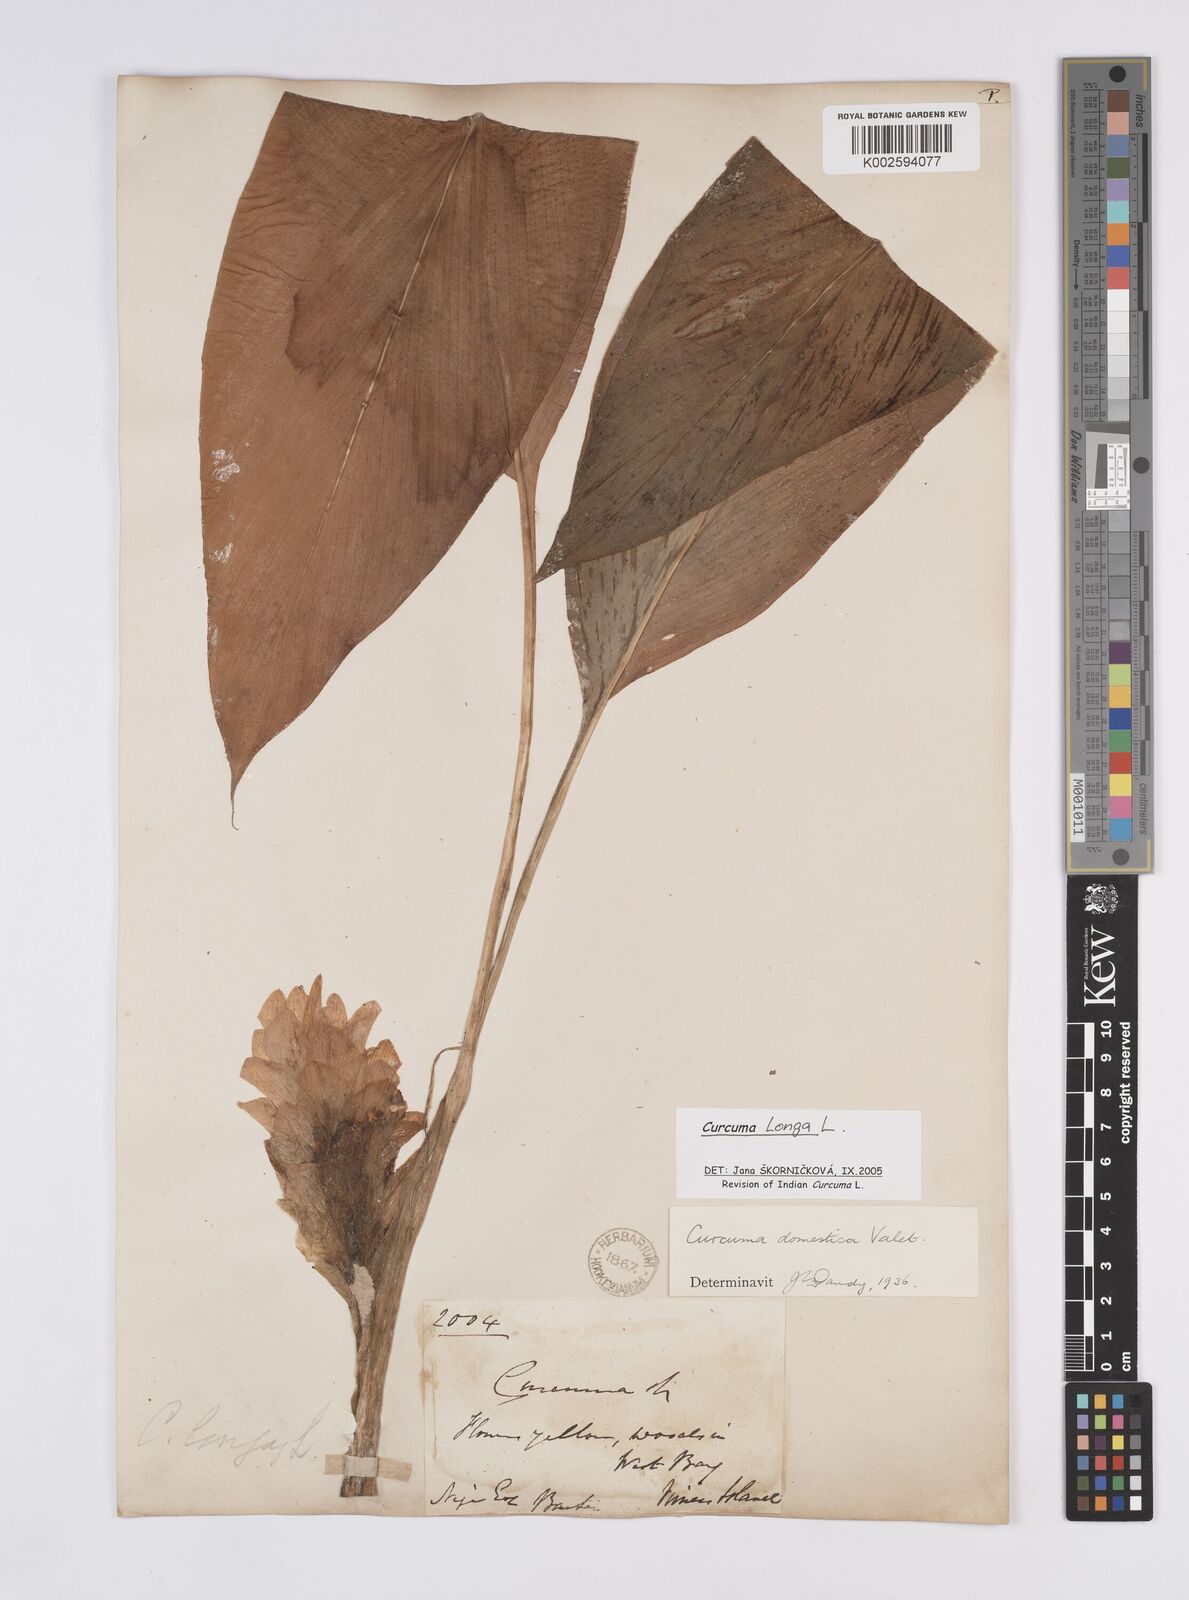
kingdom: Plantae
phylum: Tracheophyta
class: Liliopsida
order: Zingiberales
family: Zingiberaceae
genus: Curcuma
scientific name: Curcuma longa
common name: Turmeric
